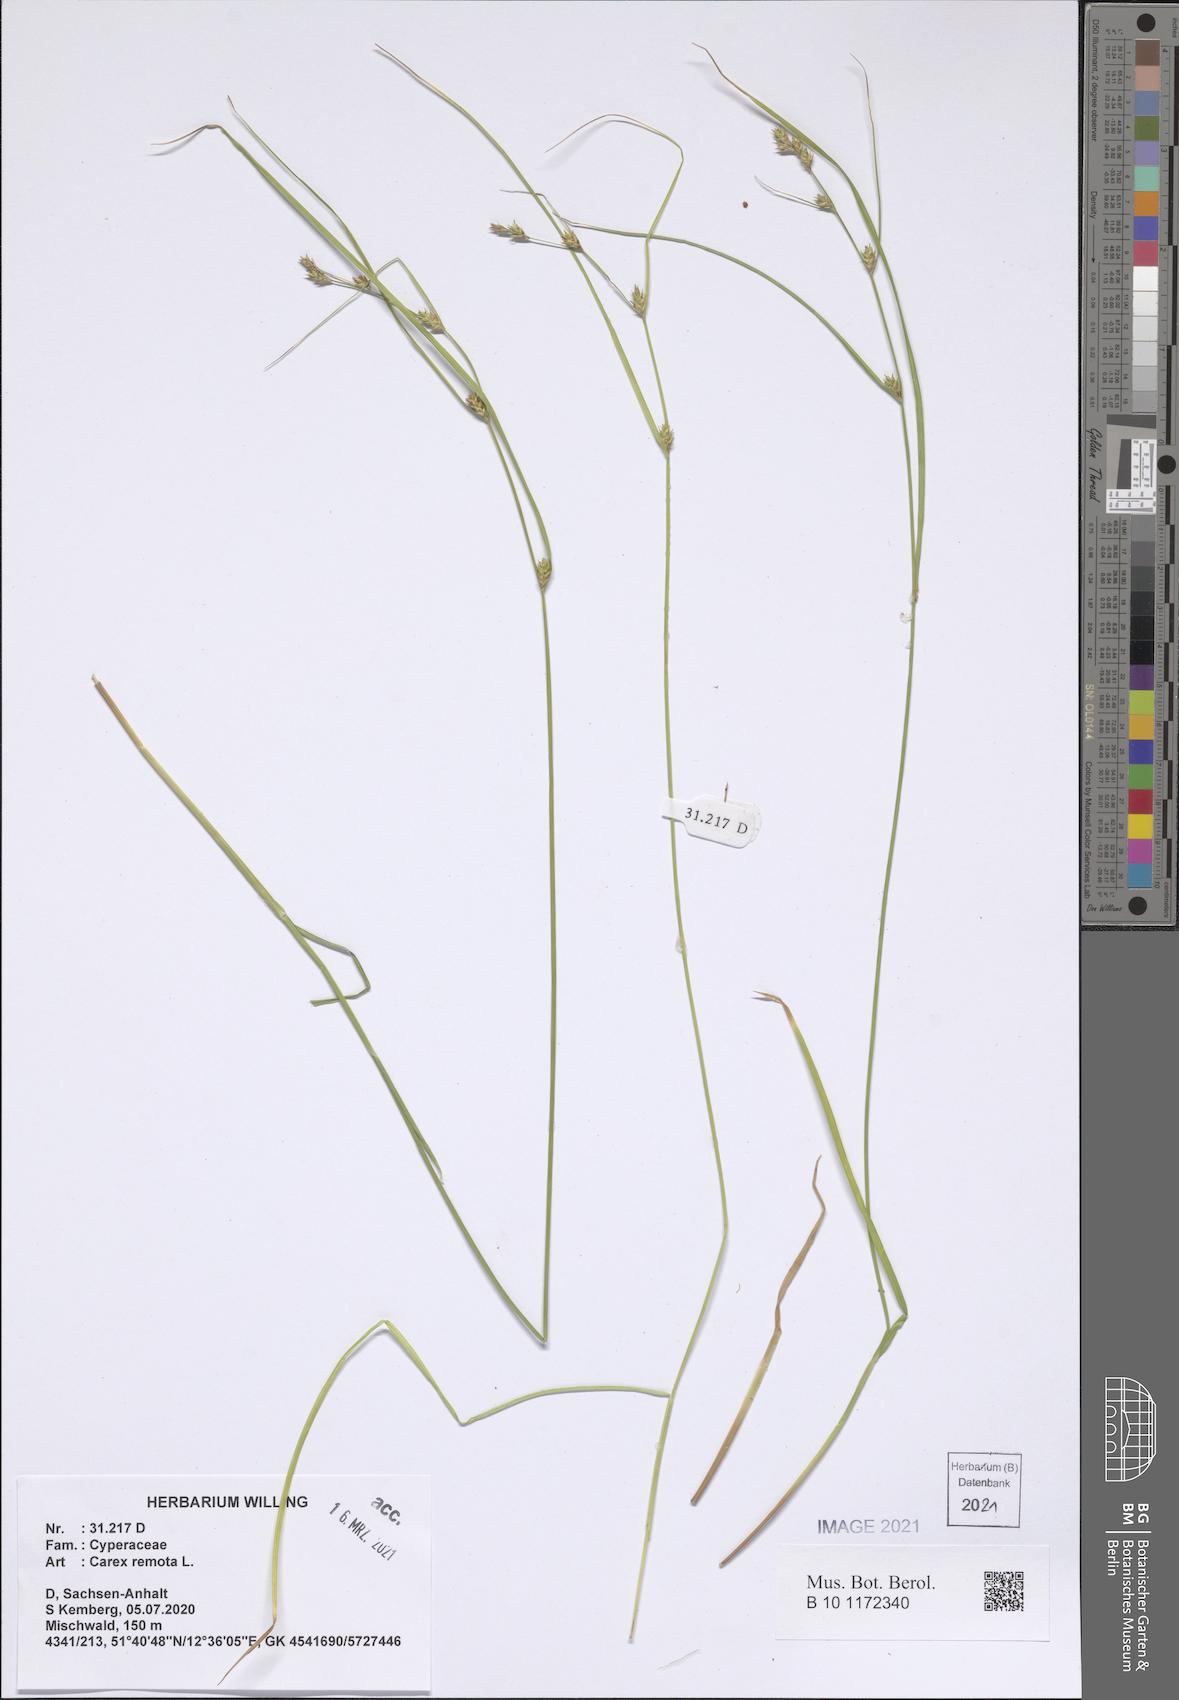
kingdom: Plantae
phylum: Tracheophyta
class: Liliopsida
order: Poales
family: Cyperaceae
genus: Carex
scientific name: Carex remota
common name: Remote sedge
